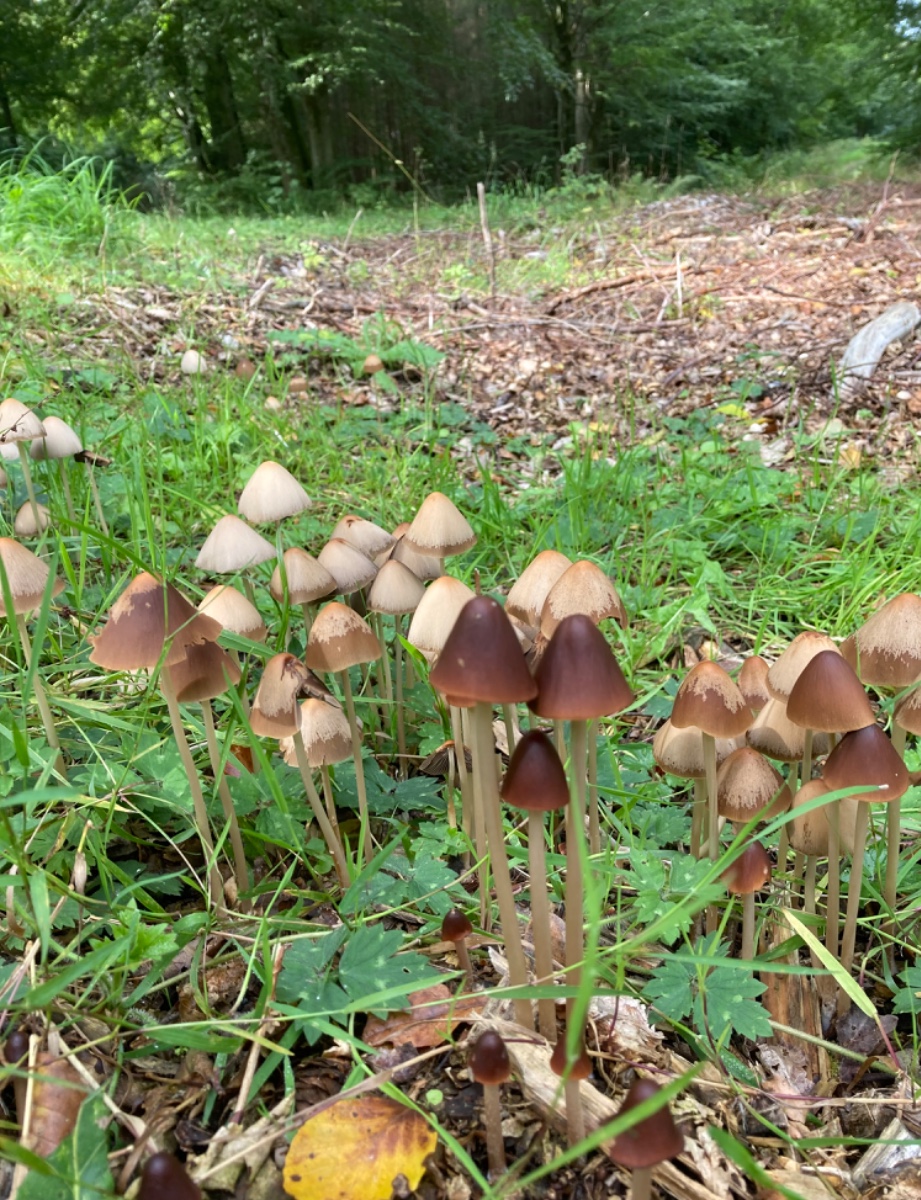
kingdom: Fungi
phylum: Basidiomycota
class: Agaricomycetes
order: Agaricales
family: Psathyrellaceae
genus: Parasola
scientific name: Parasola conopilea
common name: kegle-hjulhat
